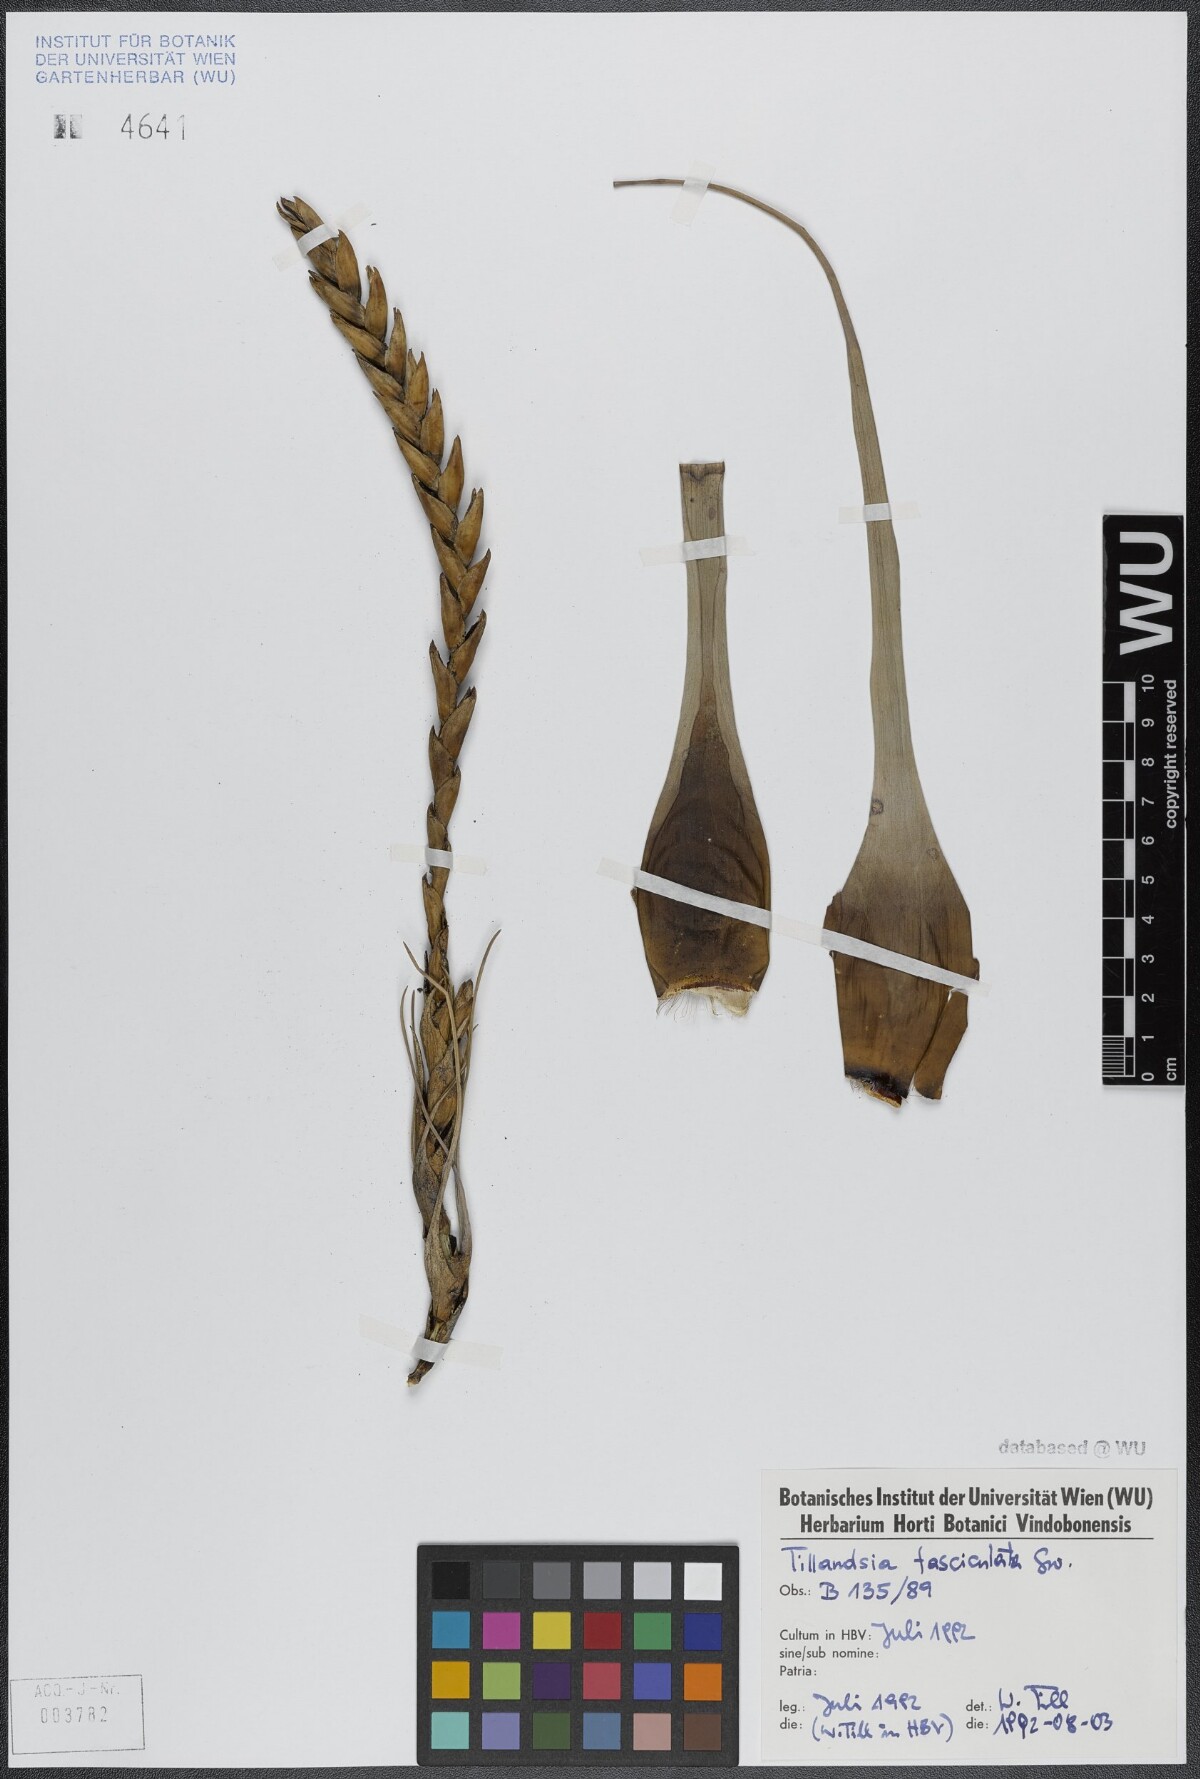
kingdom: Plantae
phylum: Tracheophyta
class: Liliopsida
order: Poales
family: Bromeliaceae
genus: Tillandsia
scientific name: Tillandsia fasciculata
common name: Giant airplant
